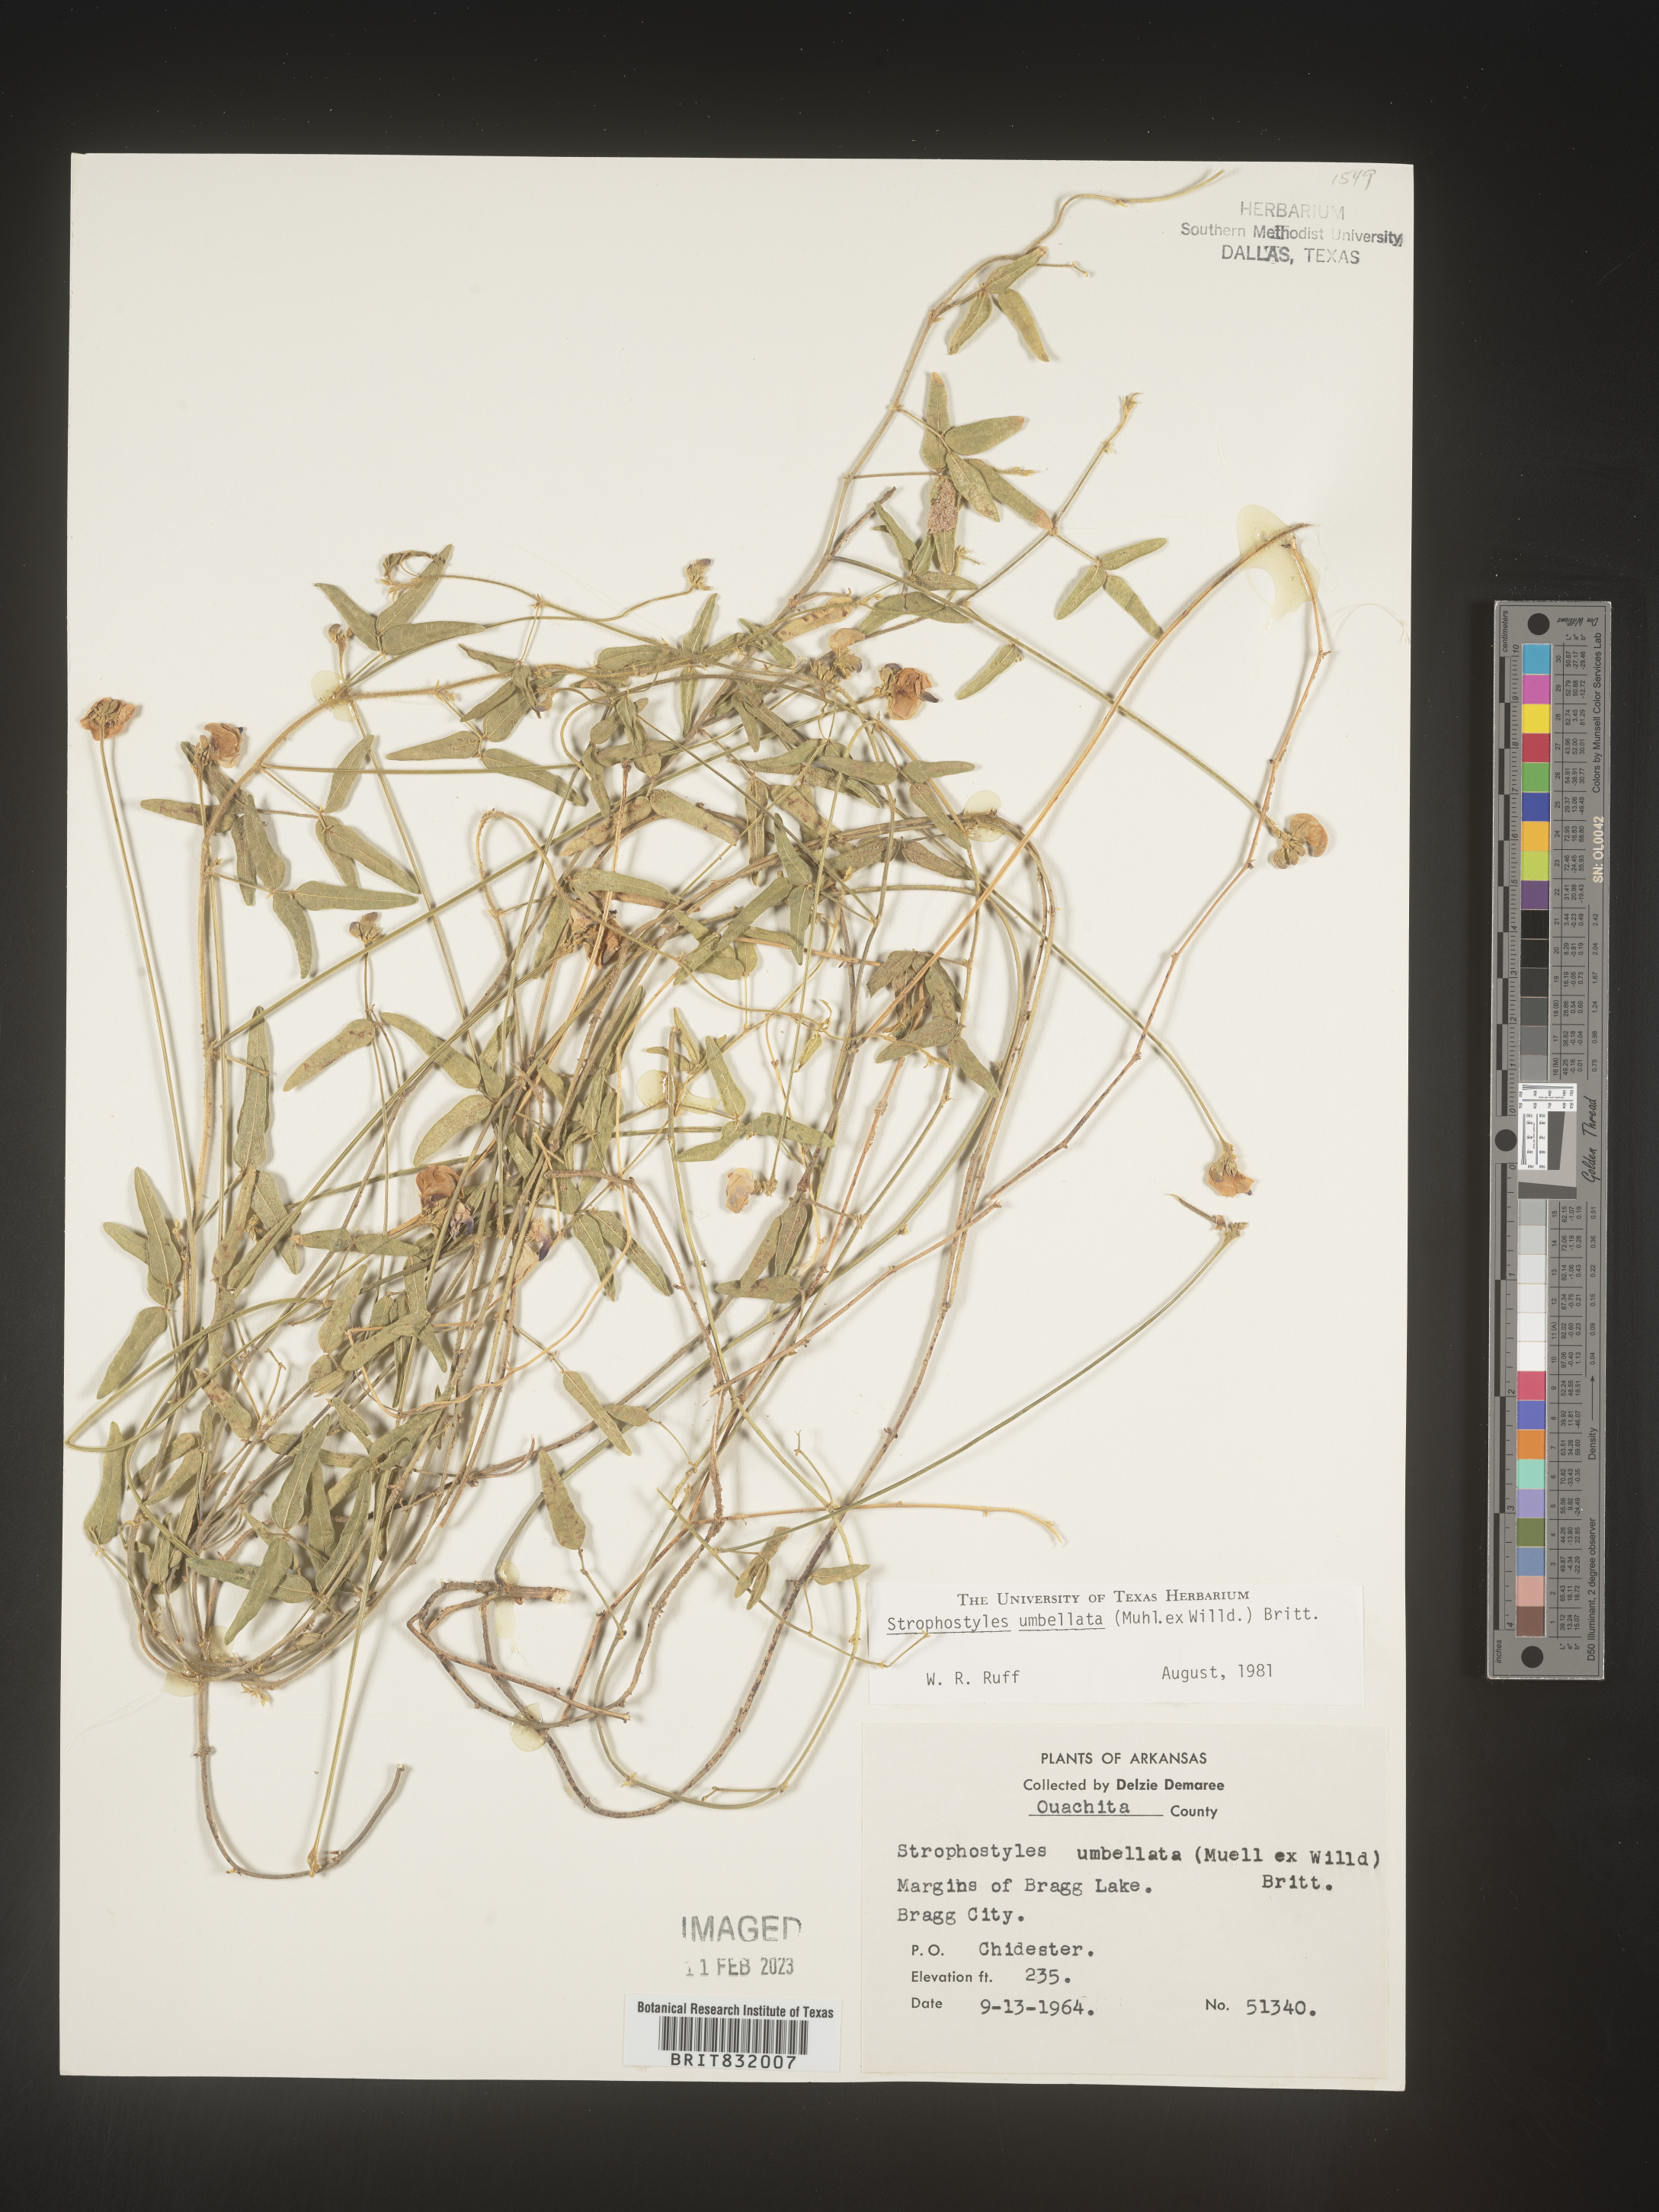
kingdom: Plantae
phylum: Tracheophyta
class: Magnoliopsida
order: Fabales
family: Fabaceae
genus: Strophostyles
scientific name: Strophostyles umbellata
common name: Perennial wild bean
